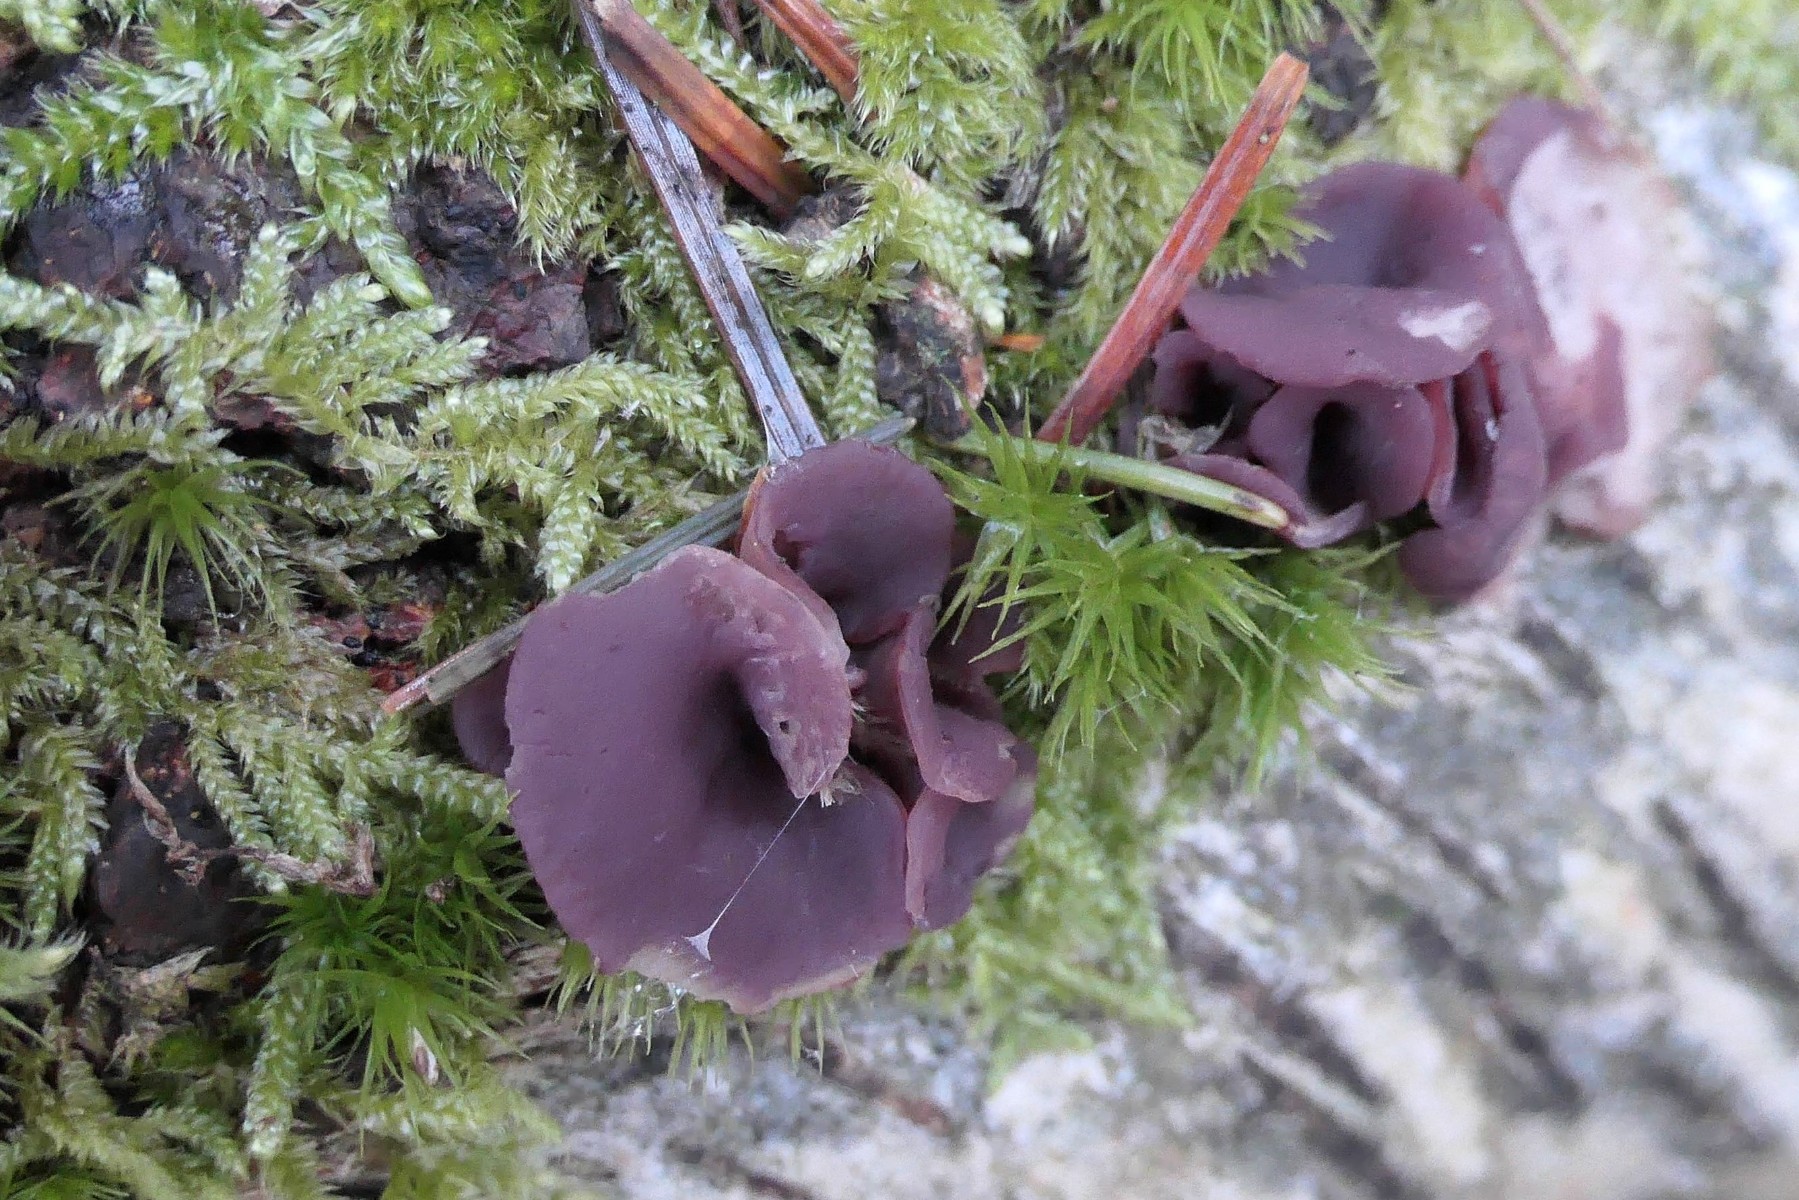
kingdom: Fungi
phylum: Ascomycota
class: Leotiomycetes
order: Helotiales
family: Gelatinodiscaceae
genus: Ascocoryne
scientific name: Ascocoryne cylichnium
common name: stor sejskive
